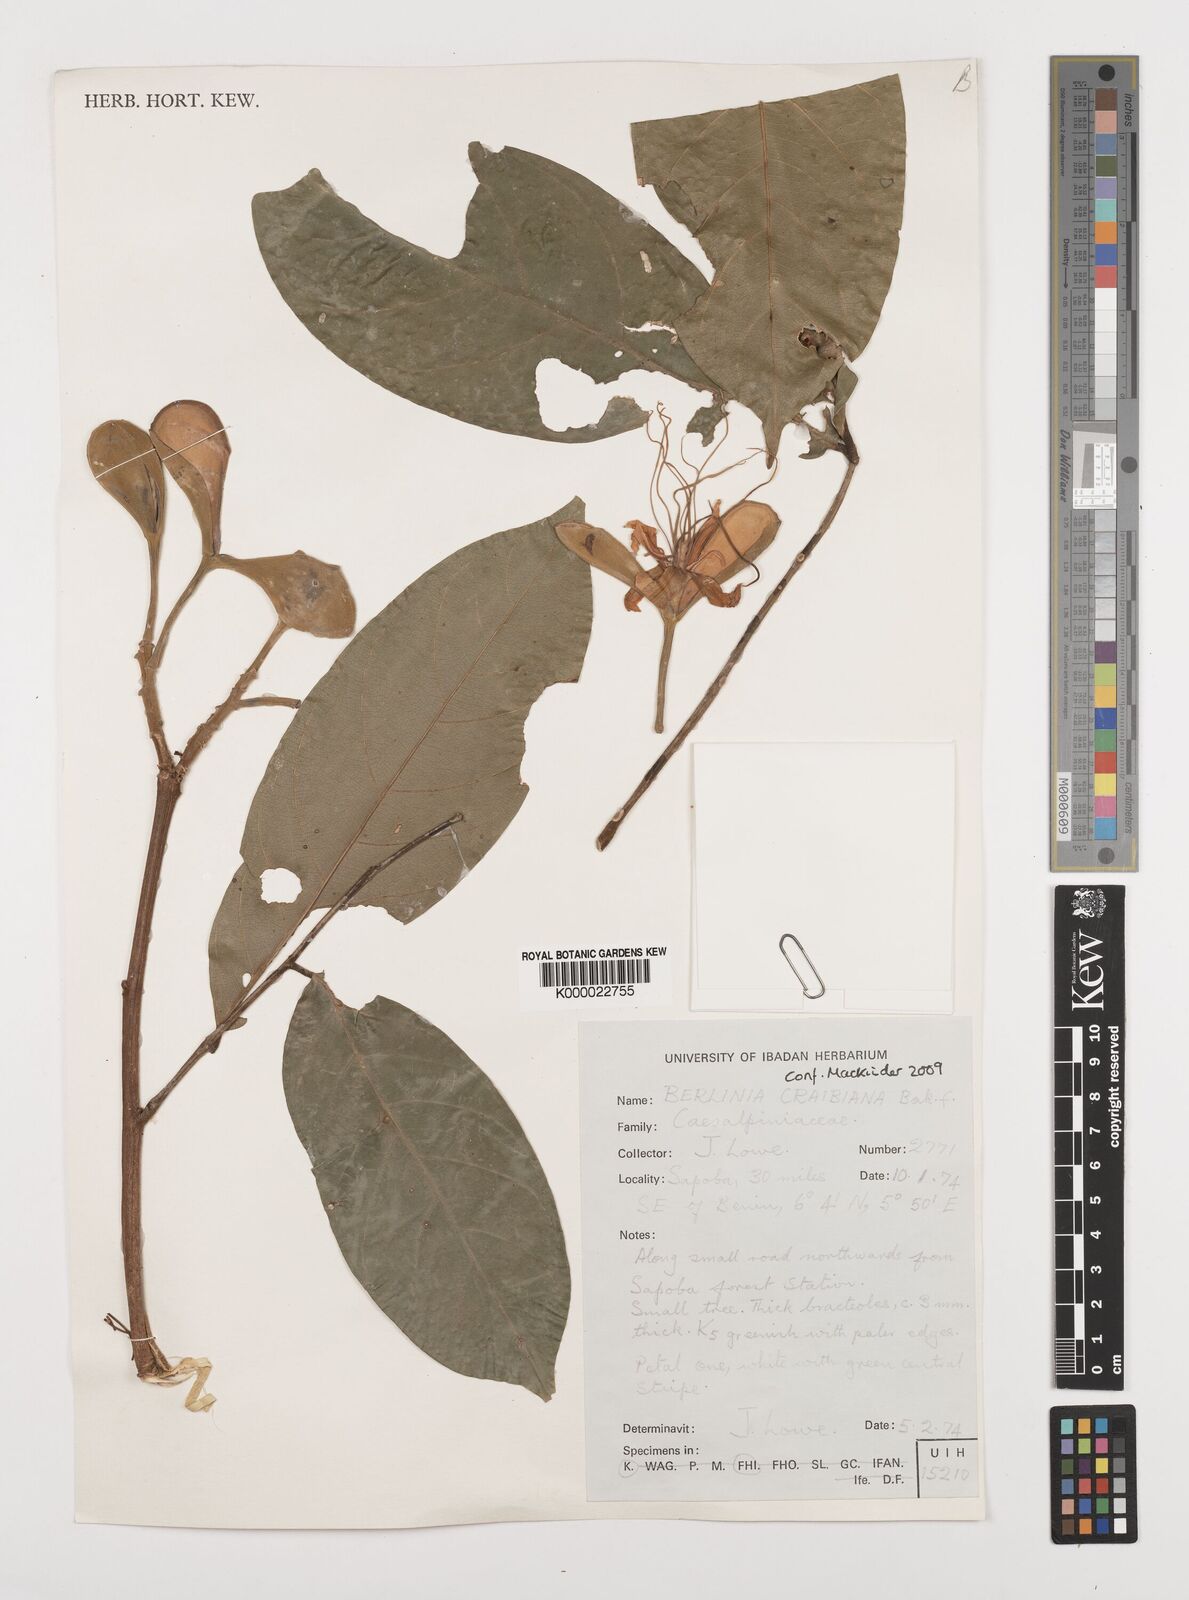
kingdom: Plantae
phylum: Tracheophyta
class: Magnoliopsida
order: Fabales
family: Fabaceae
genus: Berlinia
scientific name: Berlinia craibiana
